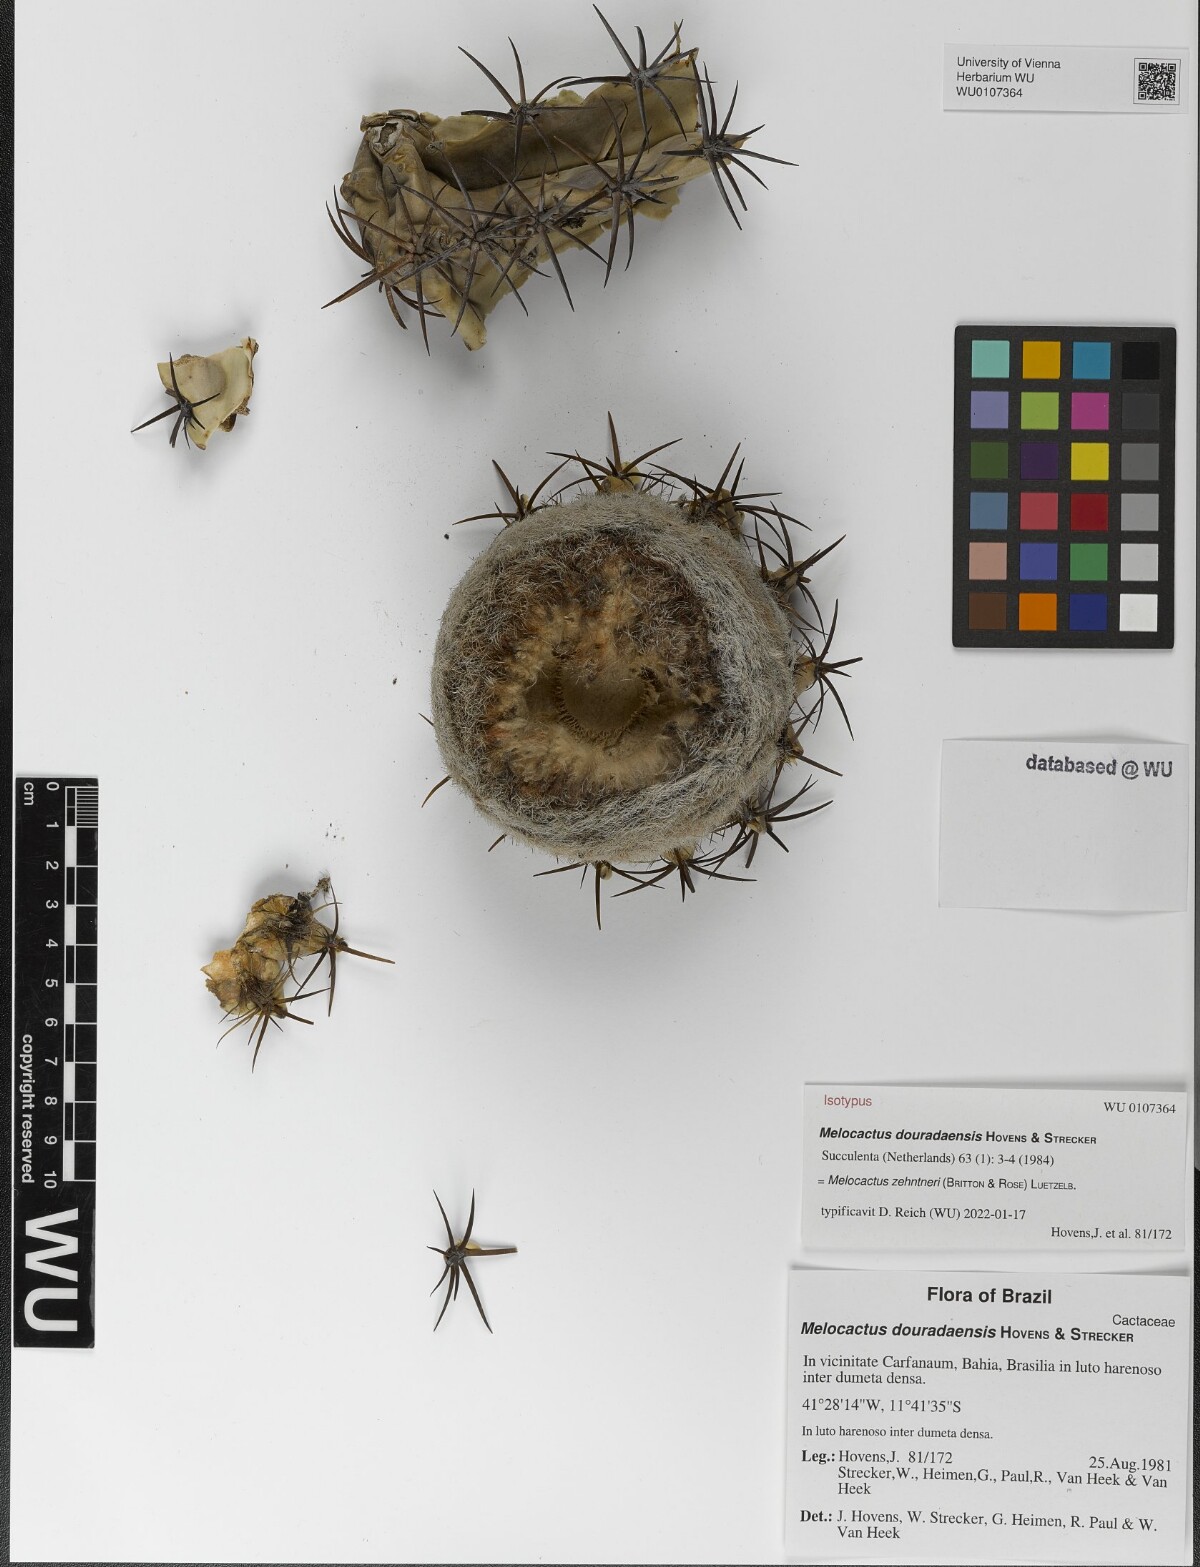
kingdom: Plantae
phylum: Tracheophyta
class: Magnoliopsida
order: Caryophyllales
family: Cactaceae
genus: Melocactus
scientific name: Melocactus zehntneri
